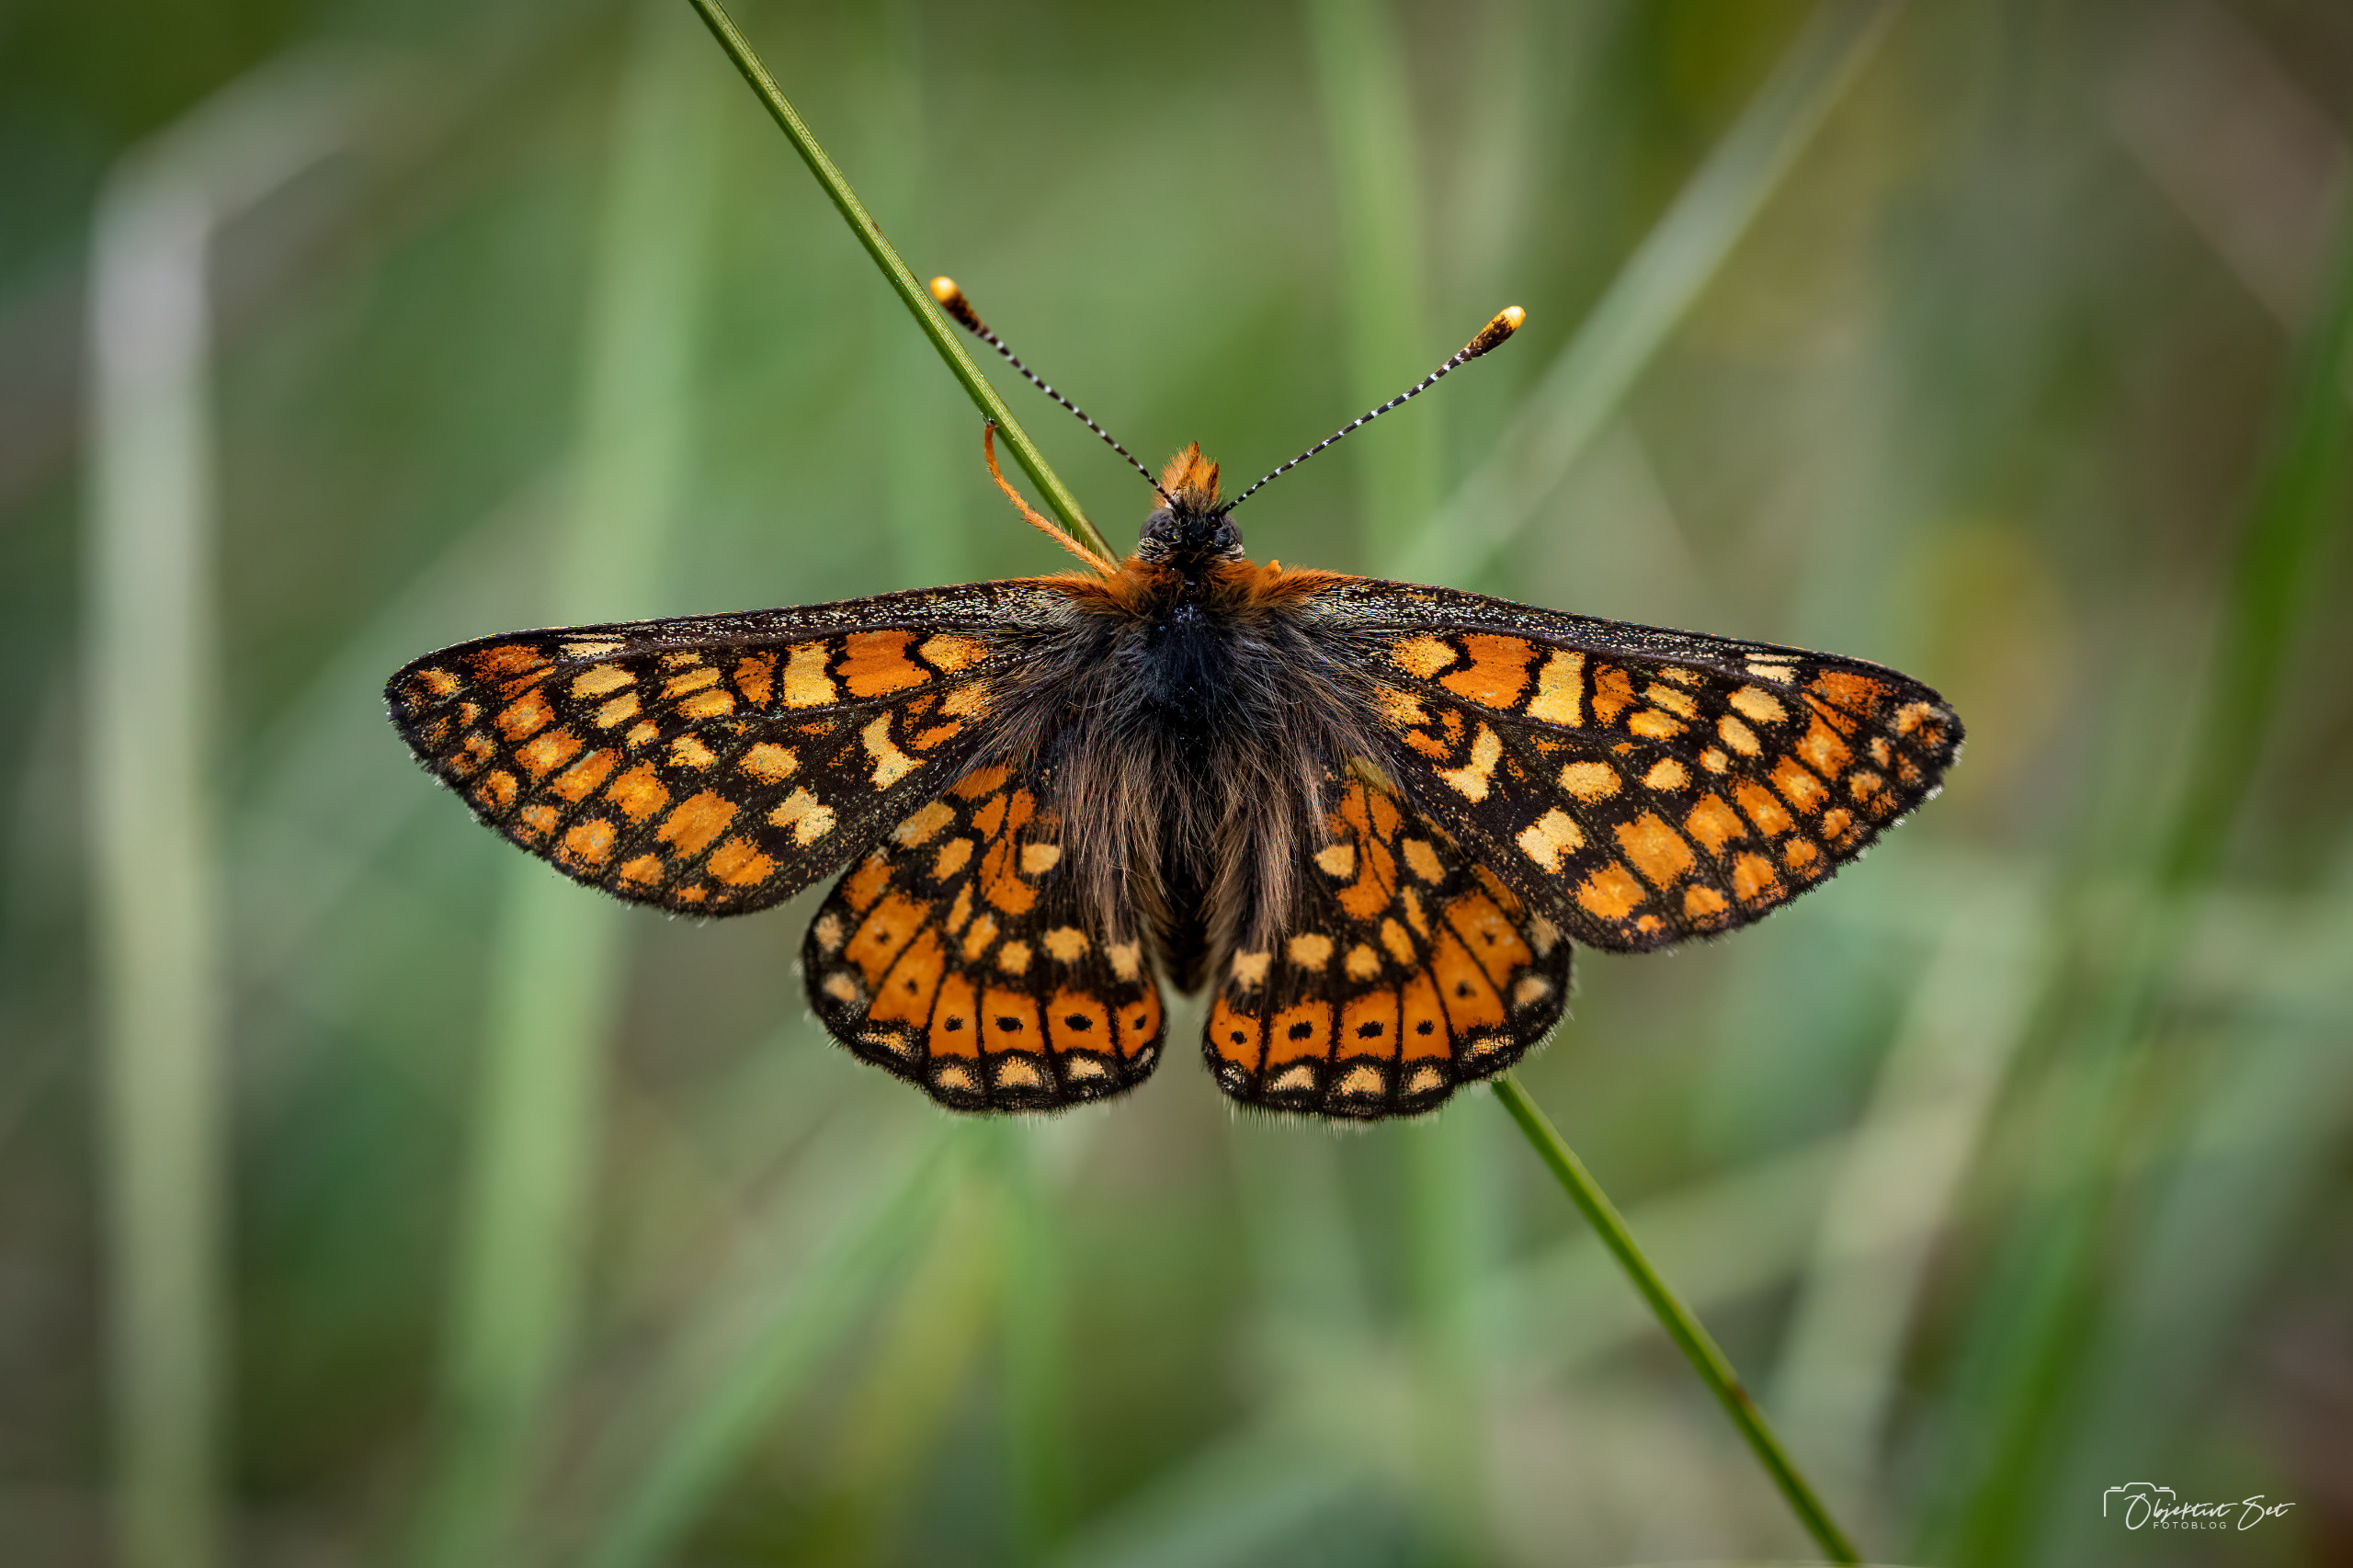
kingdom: Animalia
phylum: Arthropoda
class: Insecta
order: Lepidoptera
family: Nymphalidae
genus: Euphydryas
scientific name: Euphydryas aurinia
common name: Hedepletvinge
